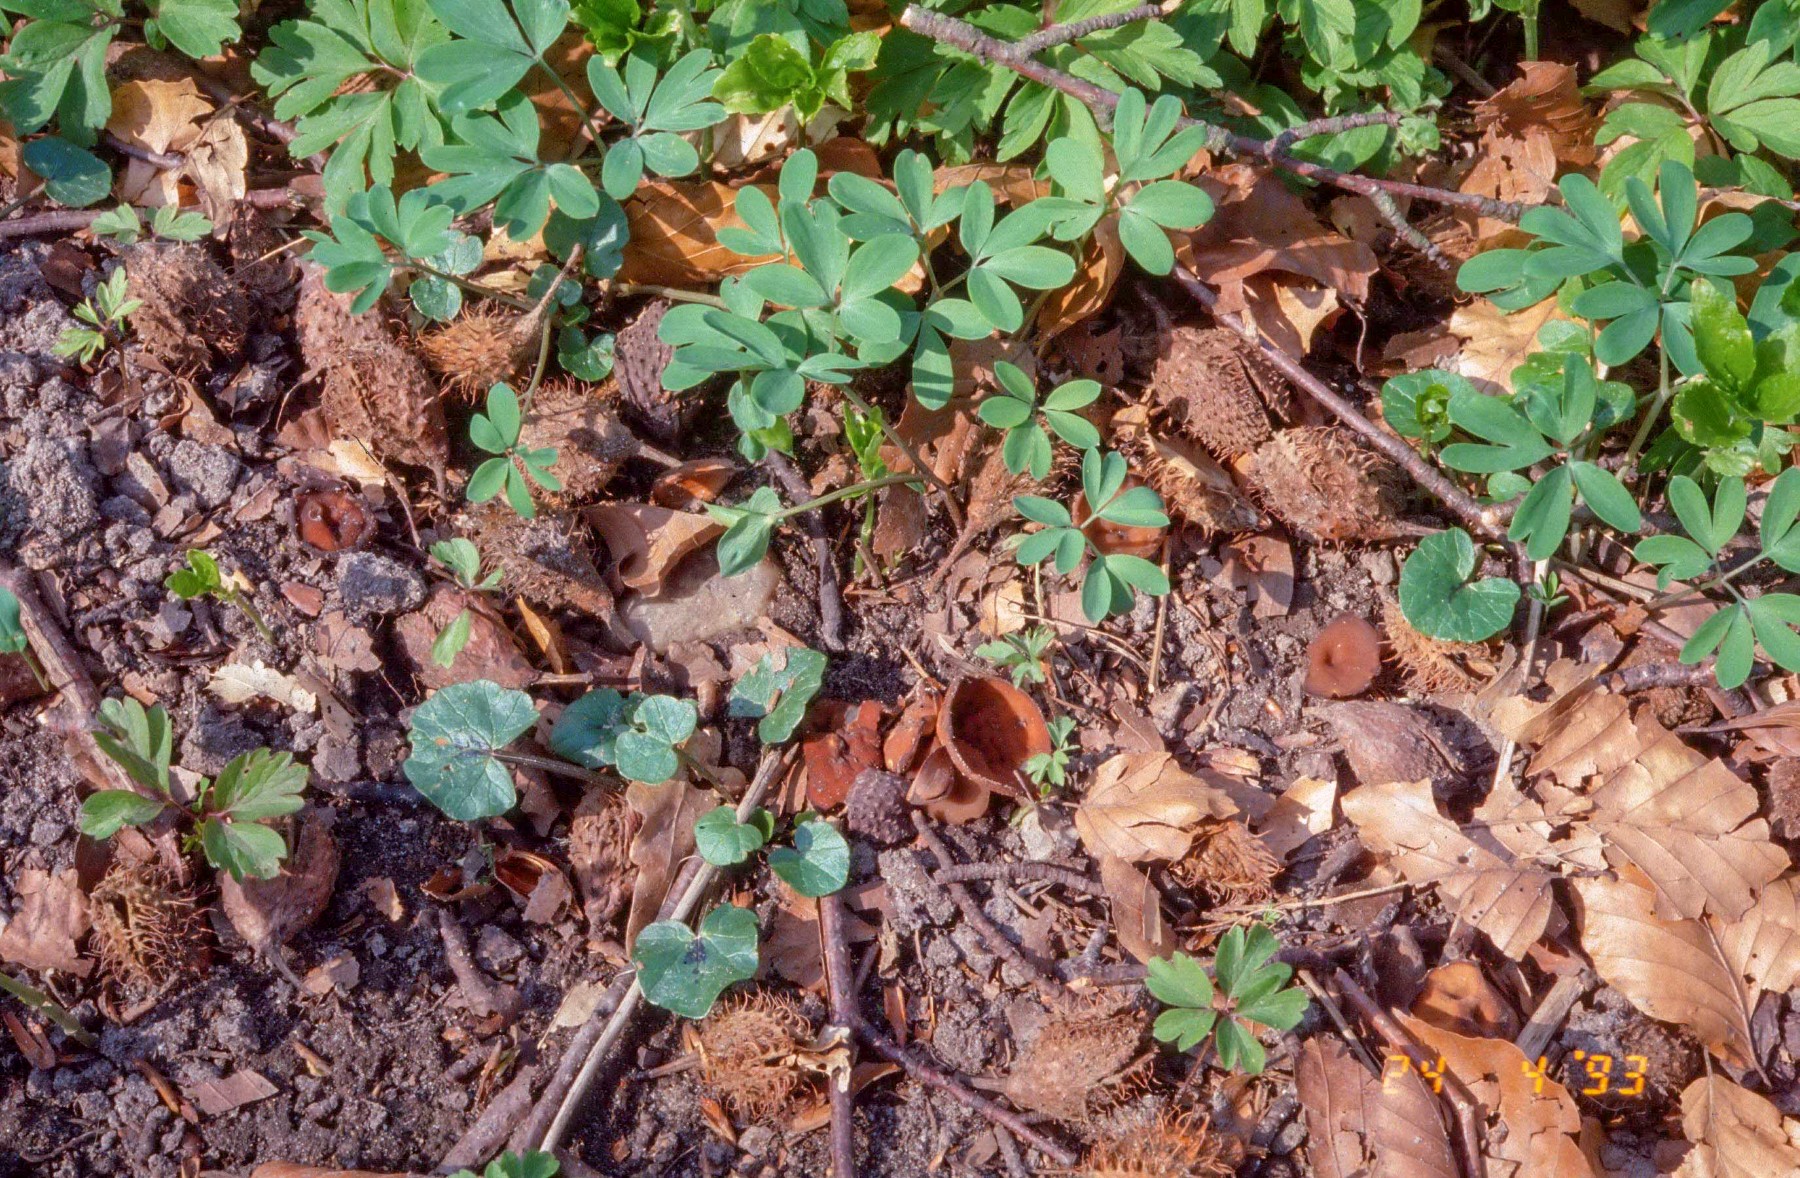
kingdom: Fungi
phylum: Ascomycota
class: Leotiomycetes
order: Helotiales
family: Sclerotiniaceae
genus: Dumontinia
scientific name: Dumontinia tuberosa
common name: anemone-knoldskive
